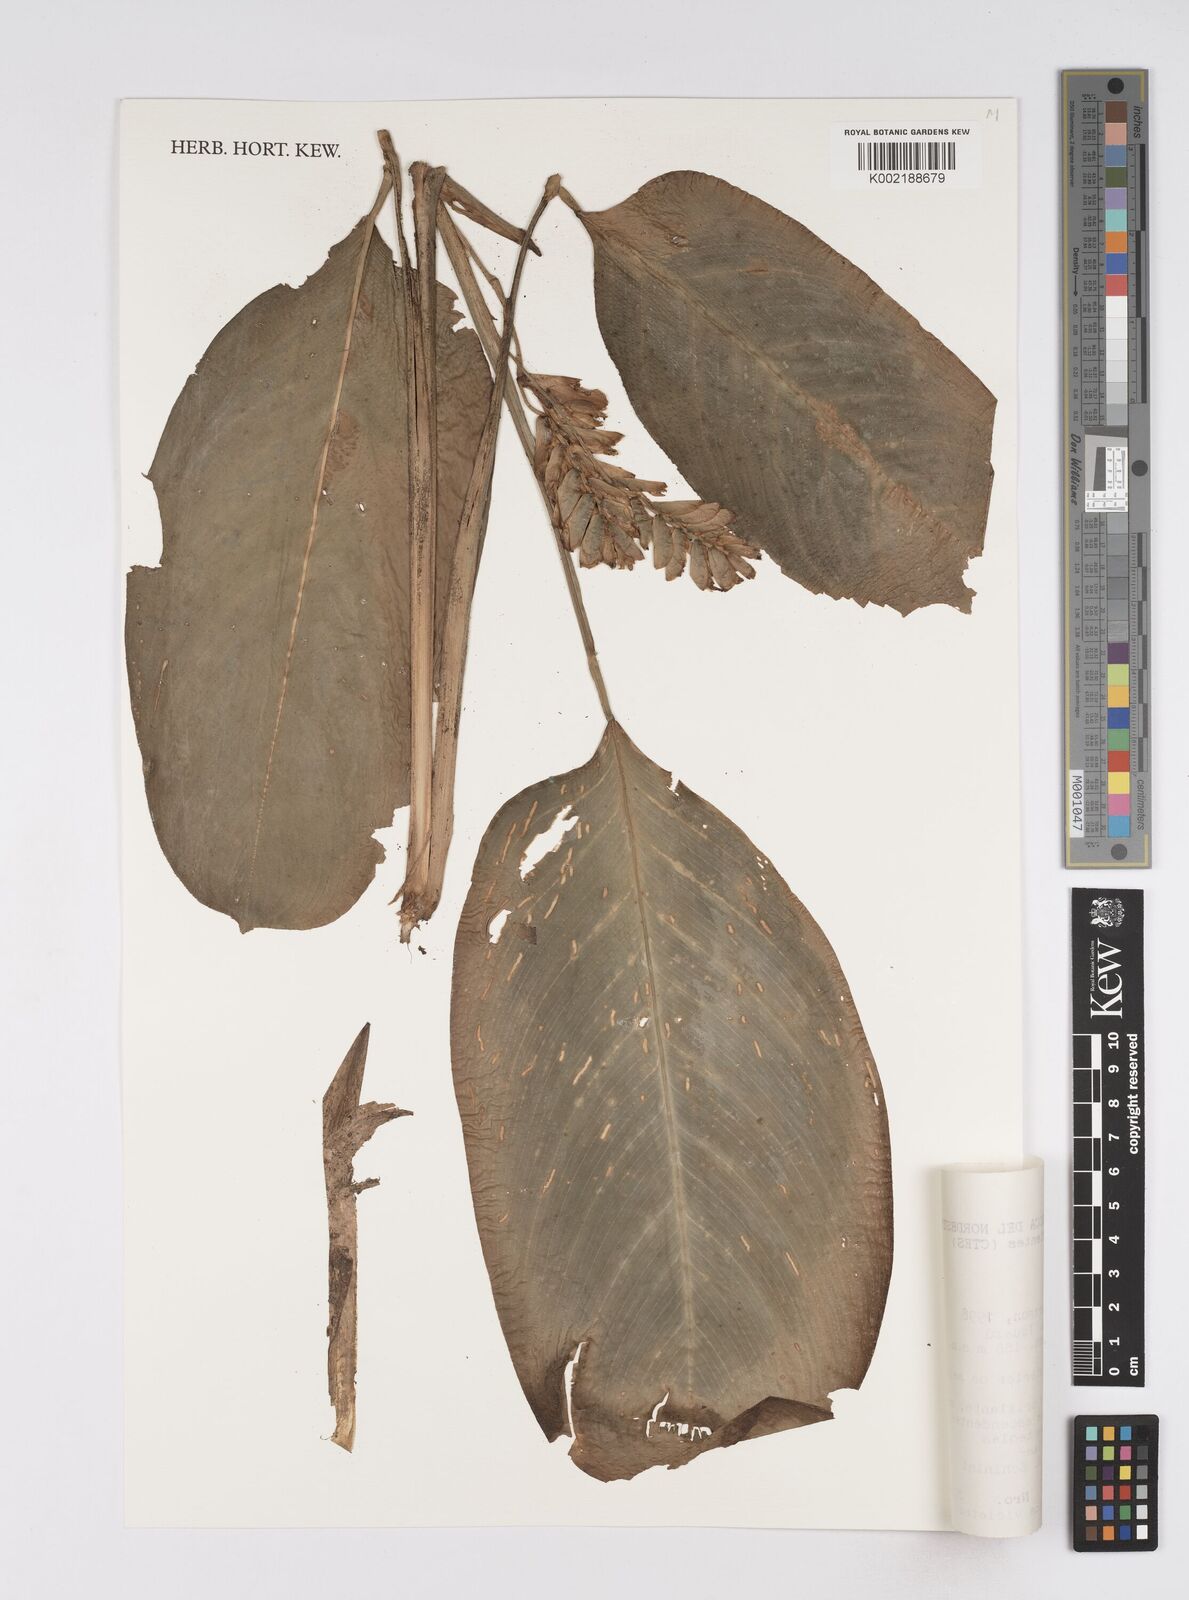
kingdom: Plantae
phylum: Tracheophyta
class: Liliopsida
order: Zingiberales
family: Marantaceae
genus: Ctenanthe
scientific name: Ctenanthe
